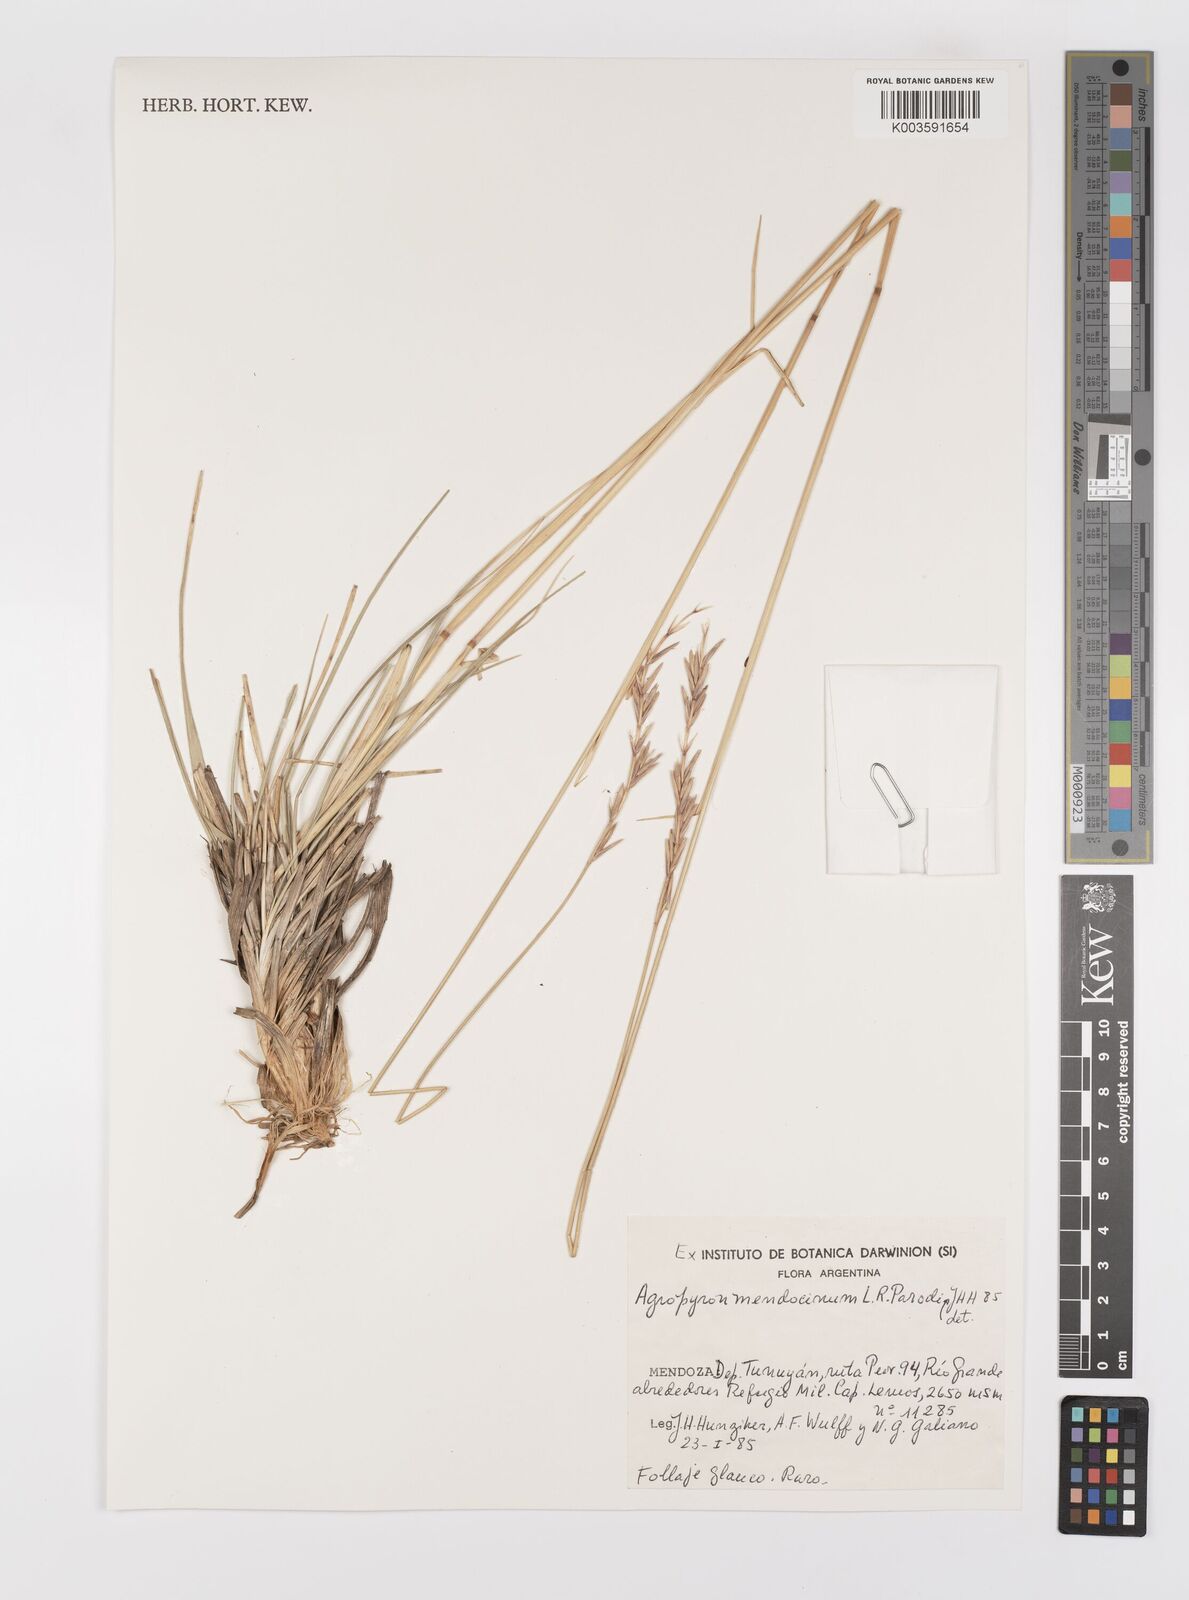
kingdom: Plantae
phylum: Tracheophyta
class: Liliopsida
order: Poales
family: Poaceae
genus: Elymus
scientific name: Elymus mendocinus
